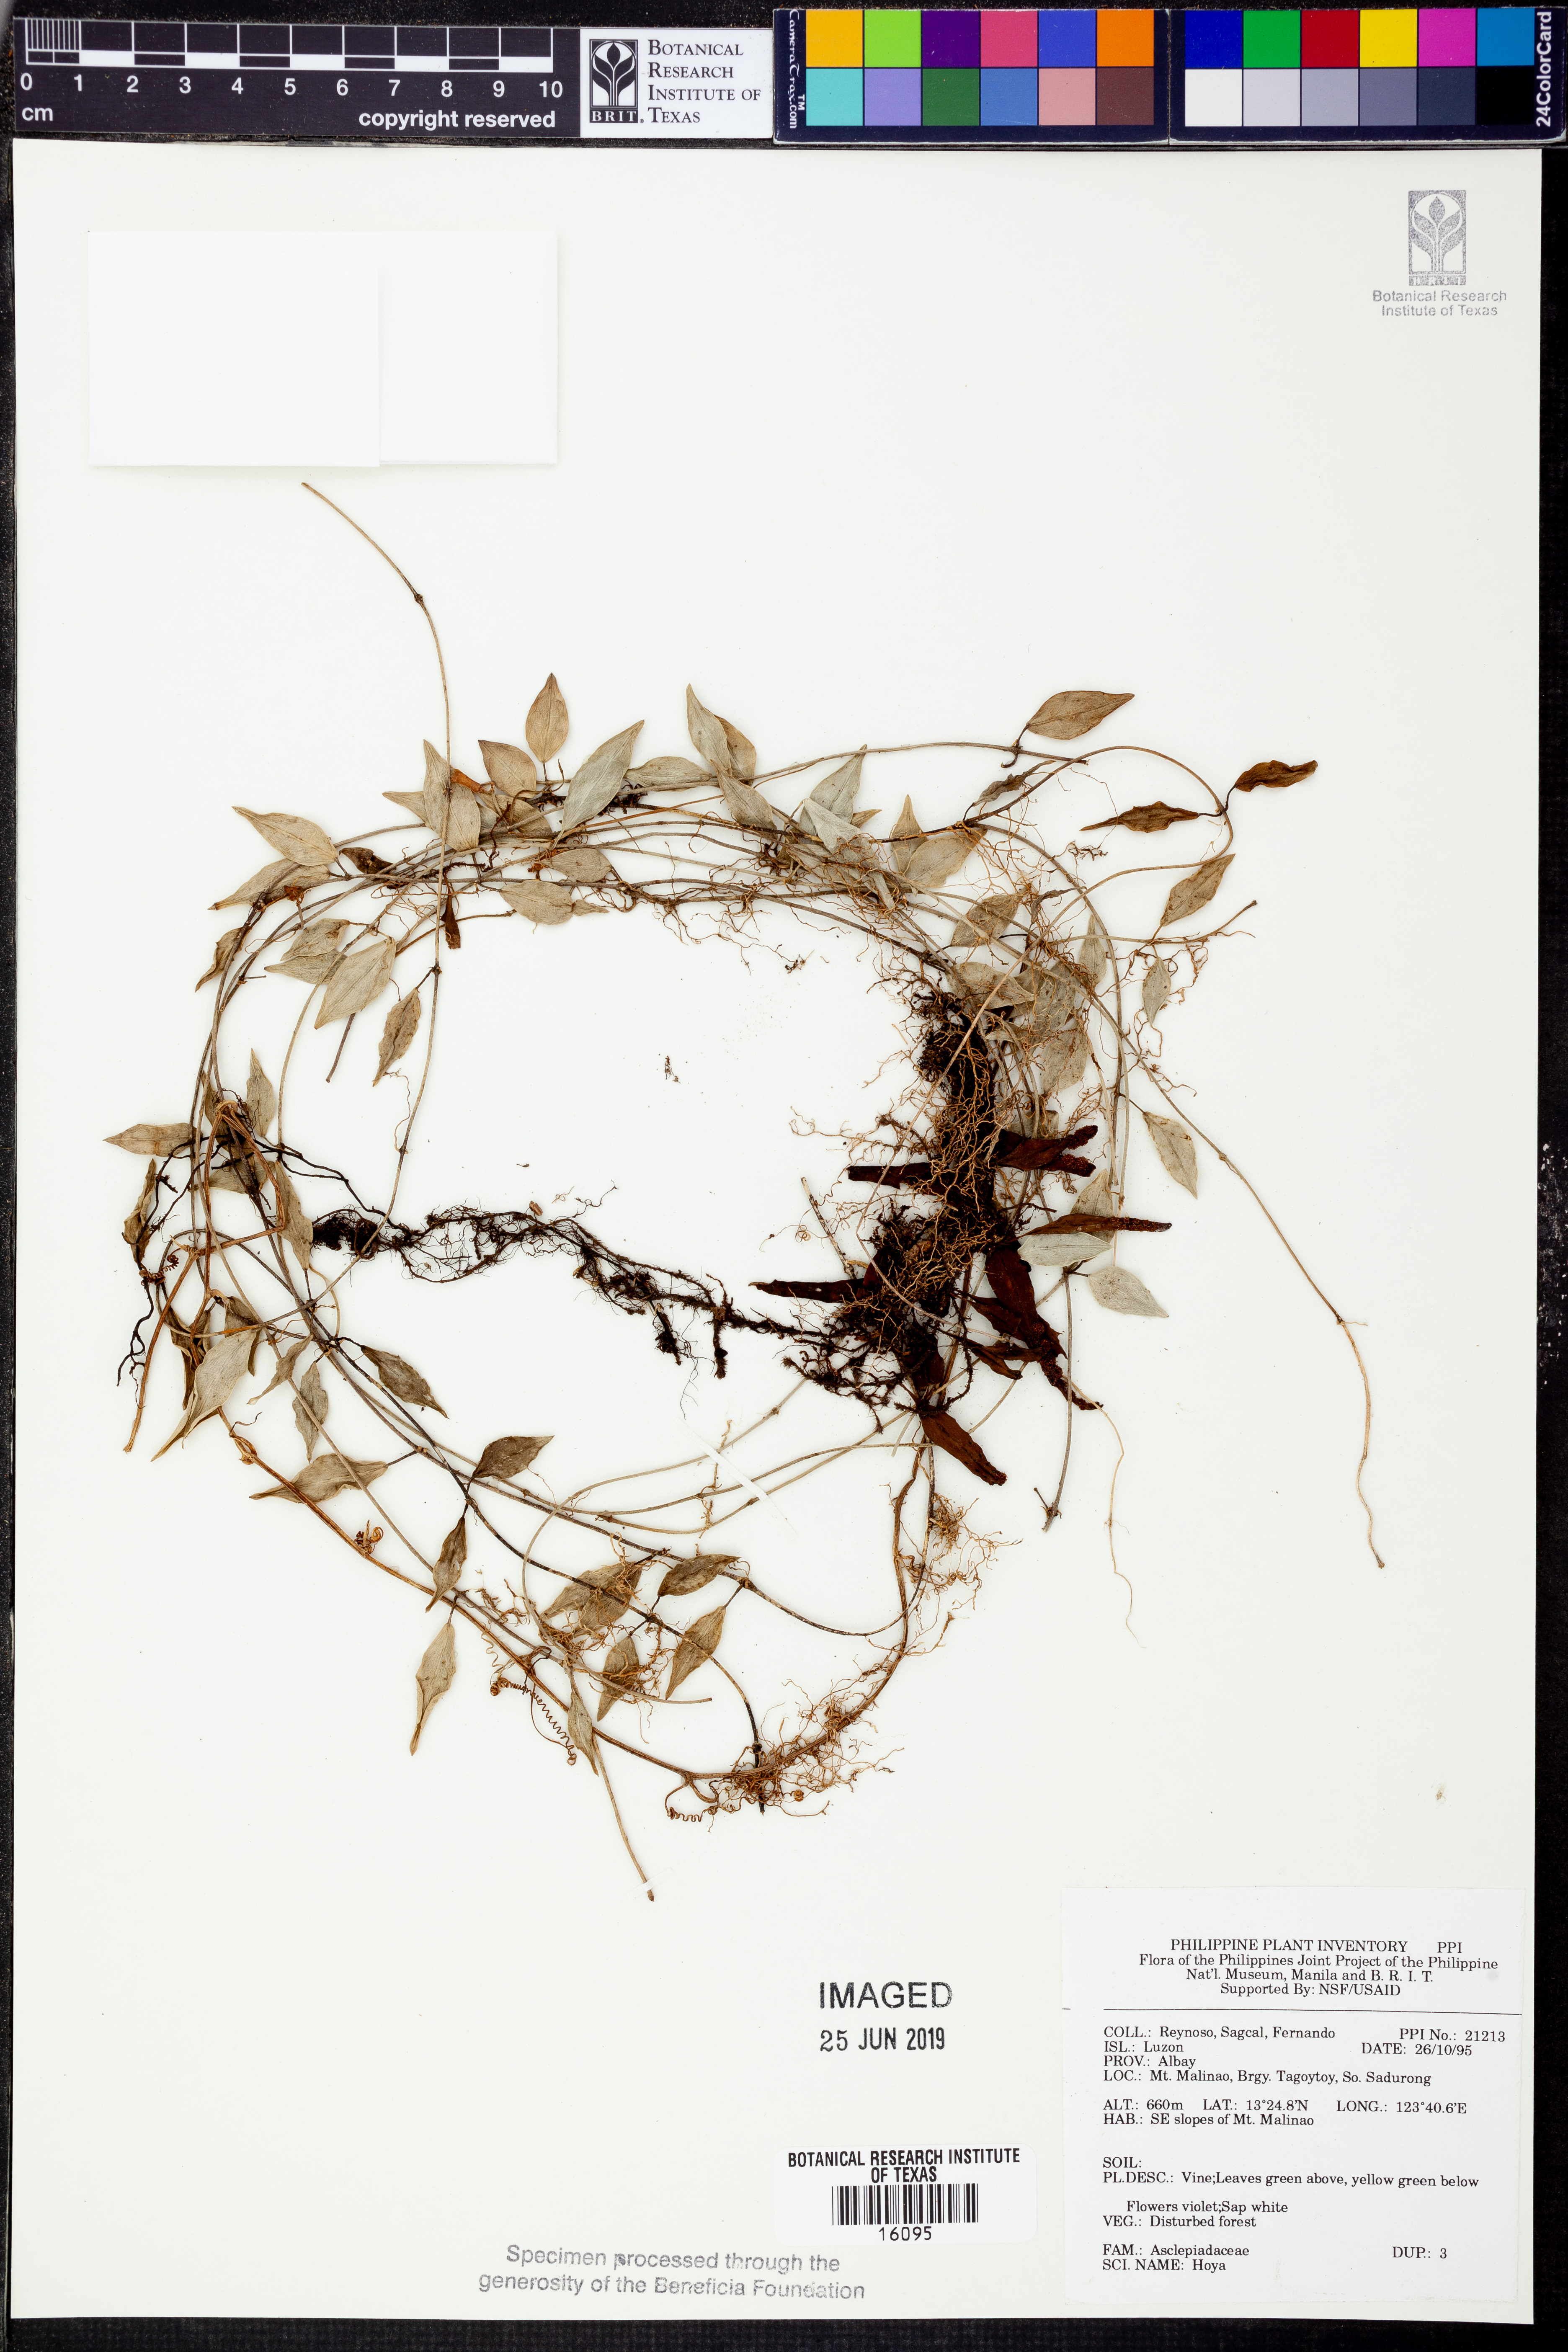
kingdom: Plantae
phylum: Tracheophyta
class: Magnoliopsida
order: Gentianales
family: Apocynaceae
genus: Hoya
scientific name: Hoya
